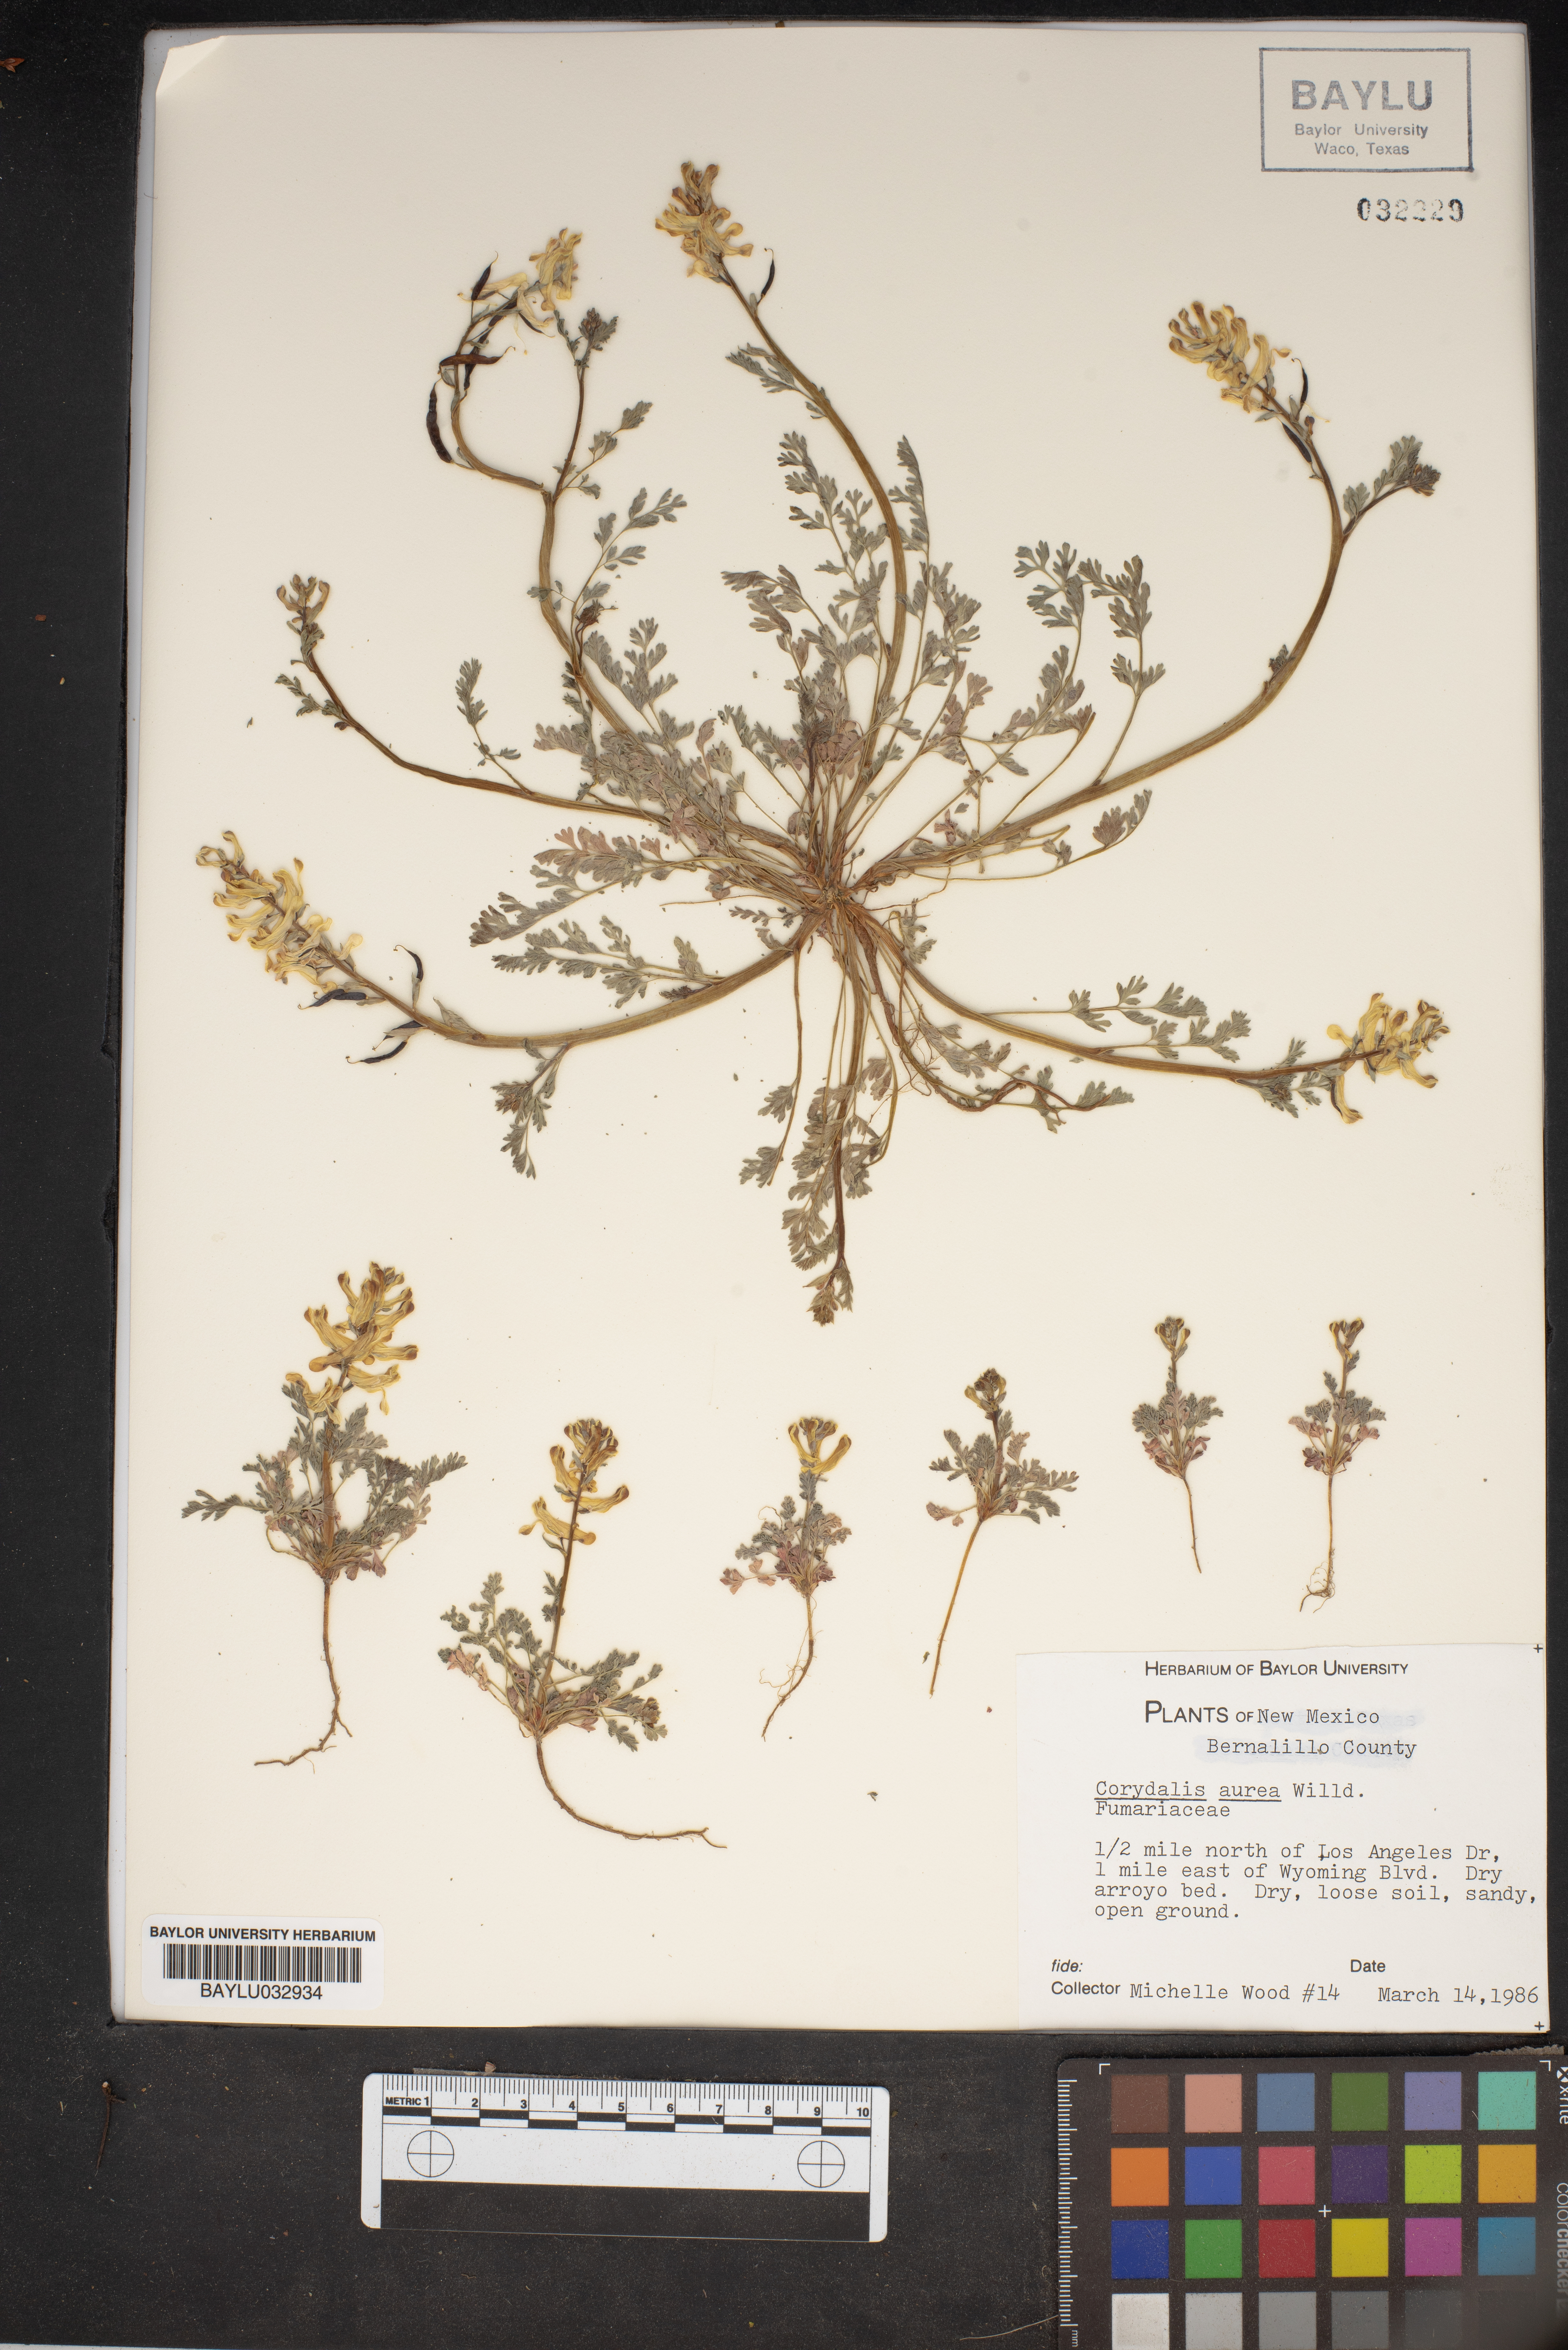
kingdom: Plantae
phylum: Tracheophyta
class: Magnoliopsida
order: Ranunculales
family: Papaveraceae
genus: Corydalis
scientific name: Corydalis aurea
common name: Golden corydalis
